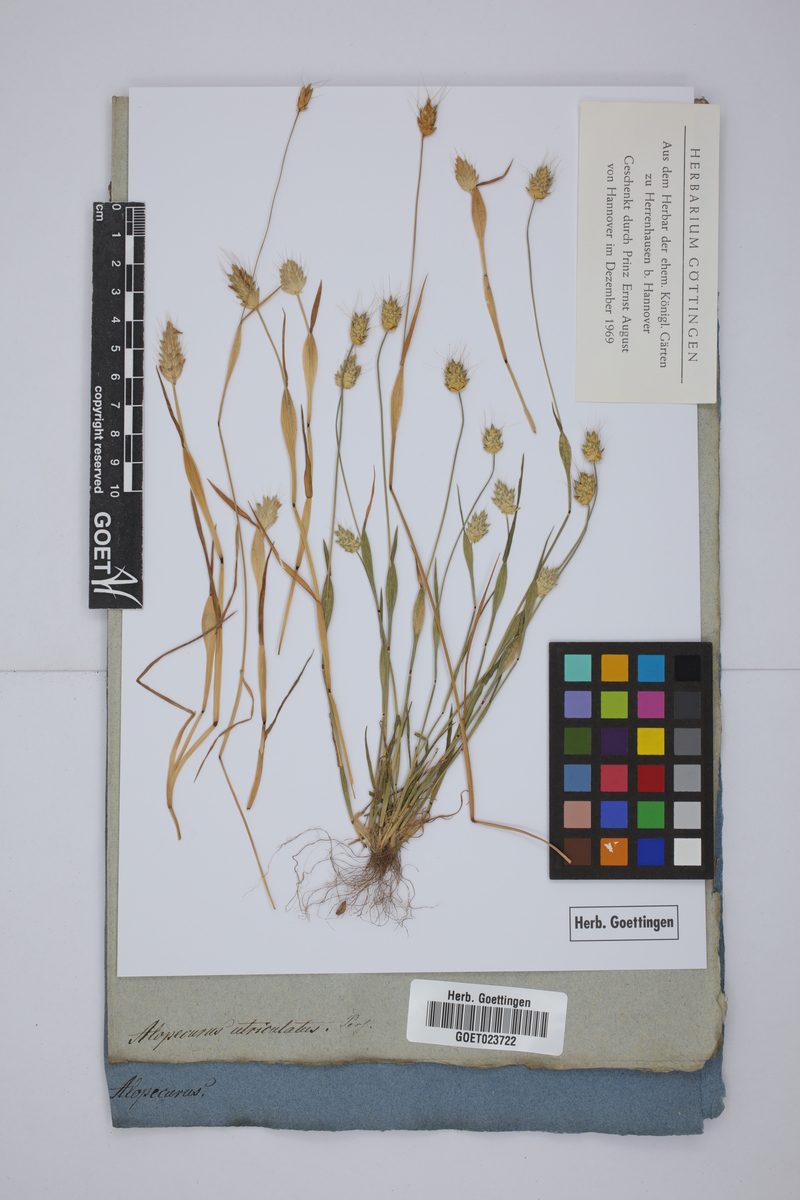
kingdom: Plantae
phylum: Tracheophyta
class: Liliopsida
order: Poales
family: Poaceae
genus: Alopecurus
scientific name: Alopecurus rendlei
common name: Rendle's meadow foxtail
